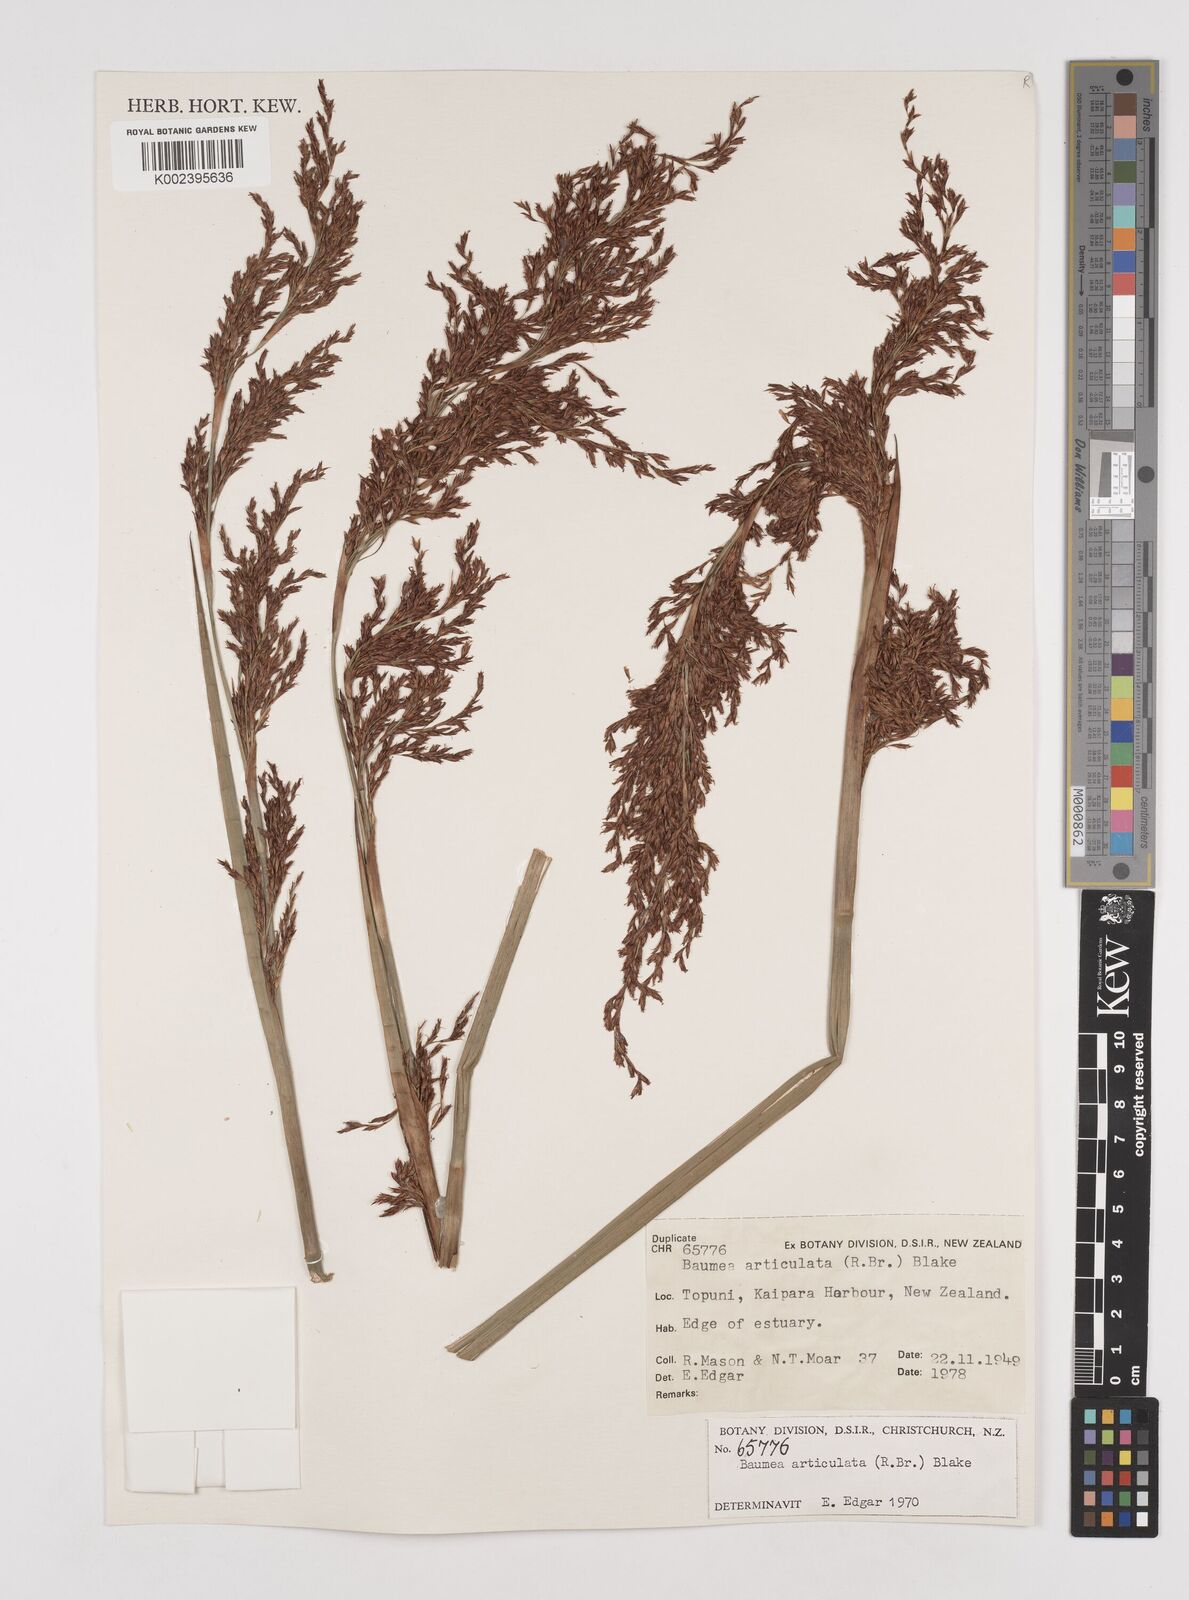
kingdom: Plantae
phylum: Tracheophyta
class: Liliopsida
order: Poales
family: Cyperaceae
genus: Machaerina
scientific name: Machaerina articulata
